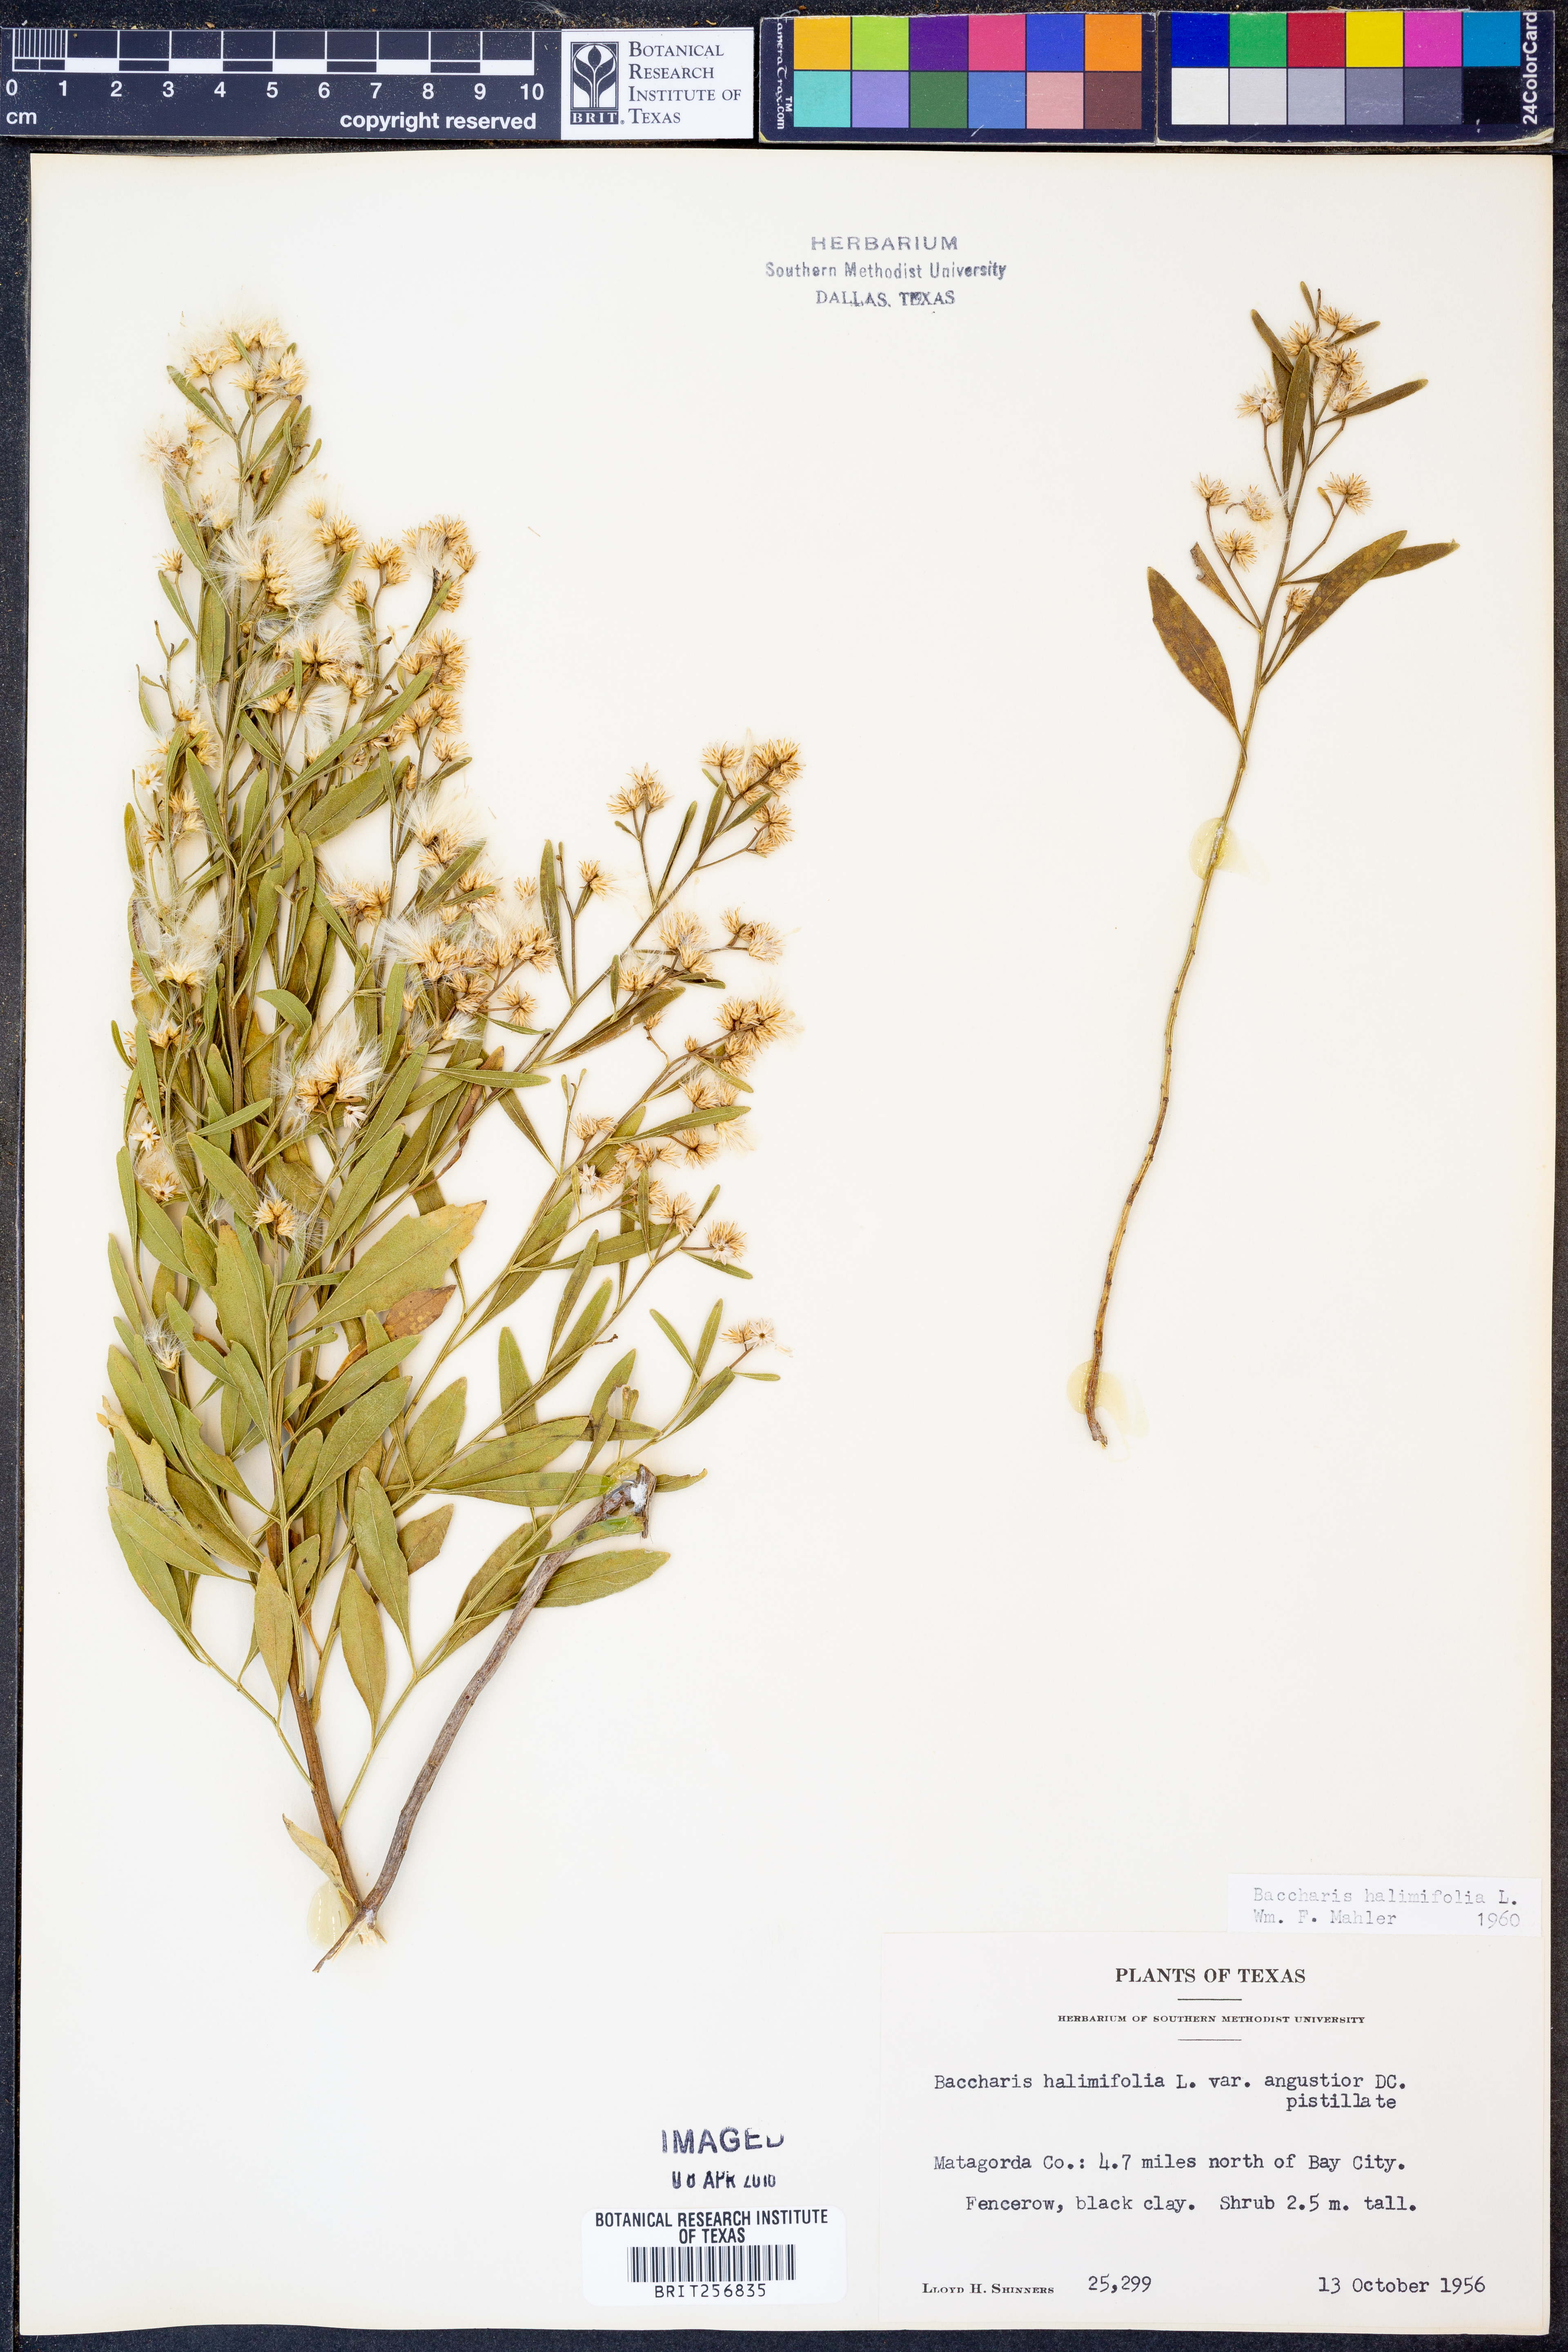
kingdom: Plantae
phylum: Tracheophyta
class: Magnoliopsida
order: Asterales
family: Asteraceae
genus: Nidorella
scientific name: Nidorella ivifolia
